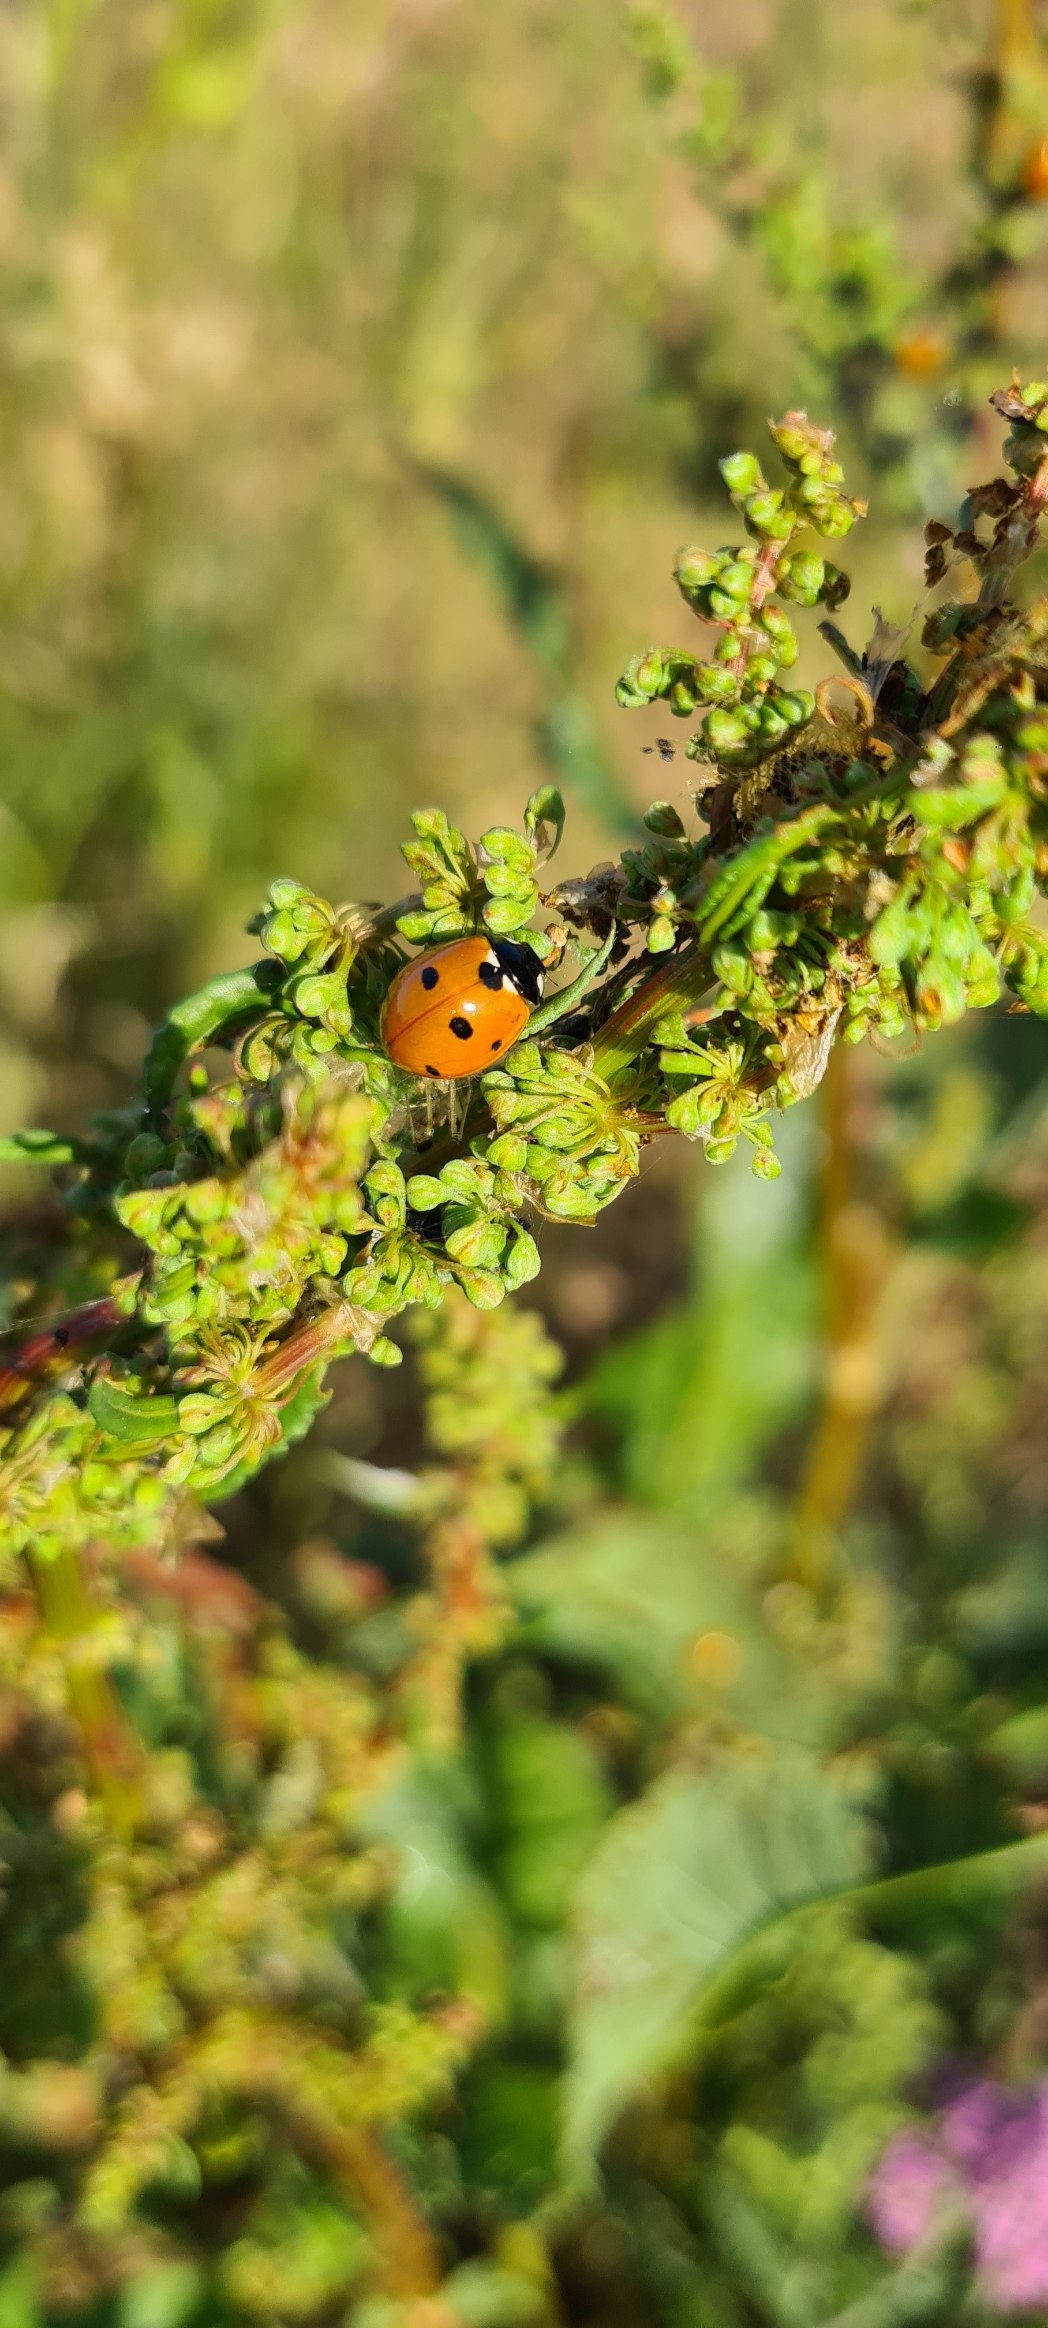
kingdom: Animalia
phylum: Arthropoda
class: Insecta
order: Coleoptera
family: Coccinellidae
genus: Coccinella
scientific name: Coccinella septempunctata
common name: Syvplettet mariehøne
